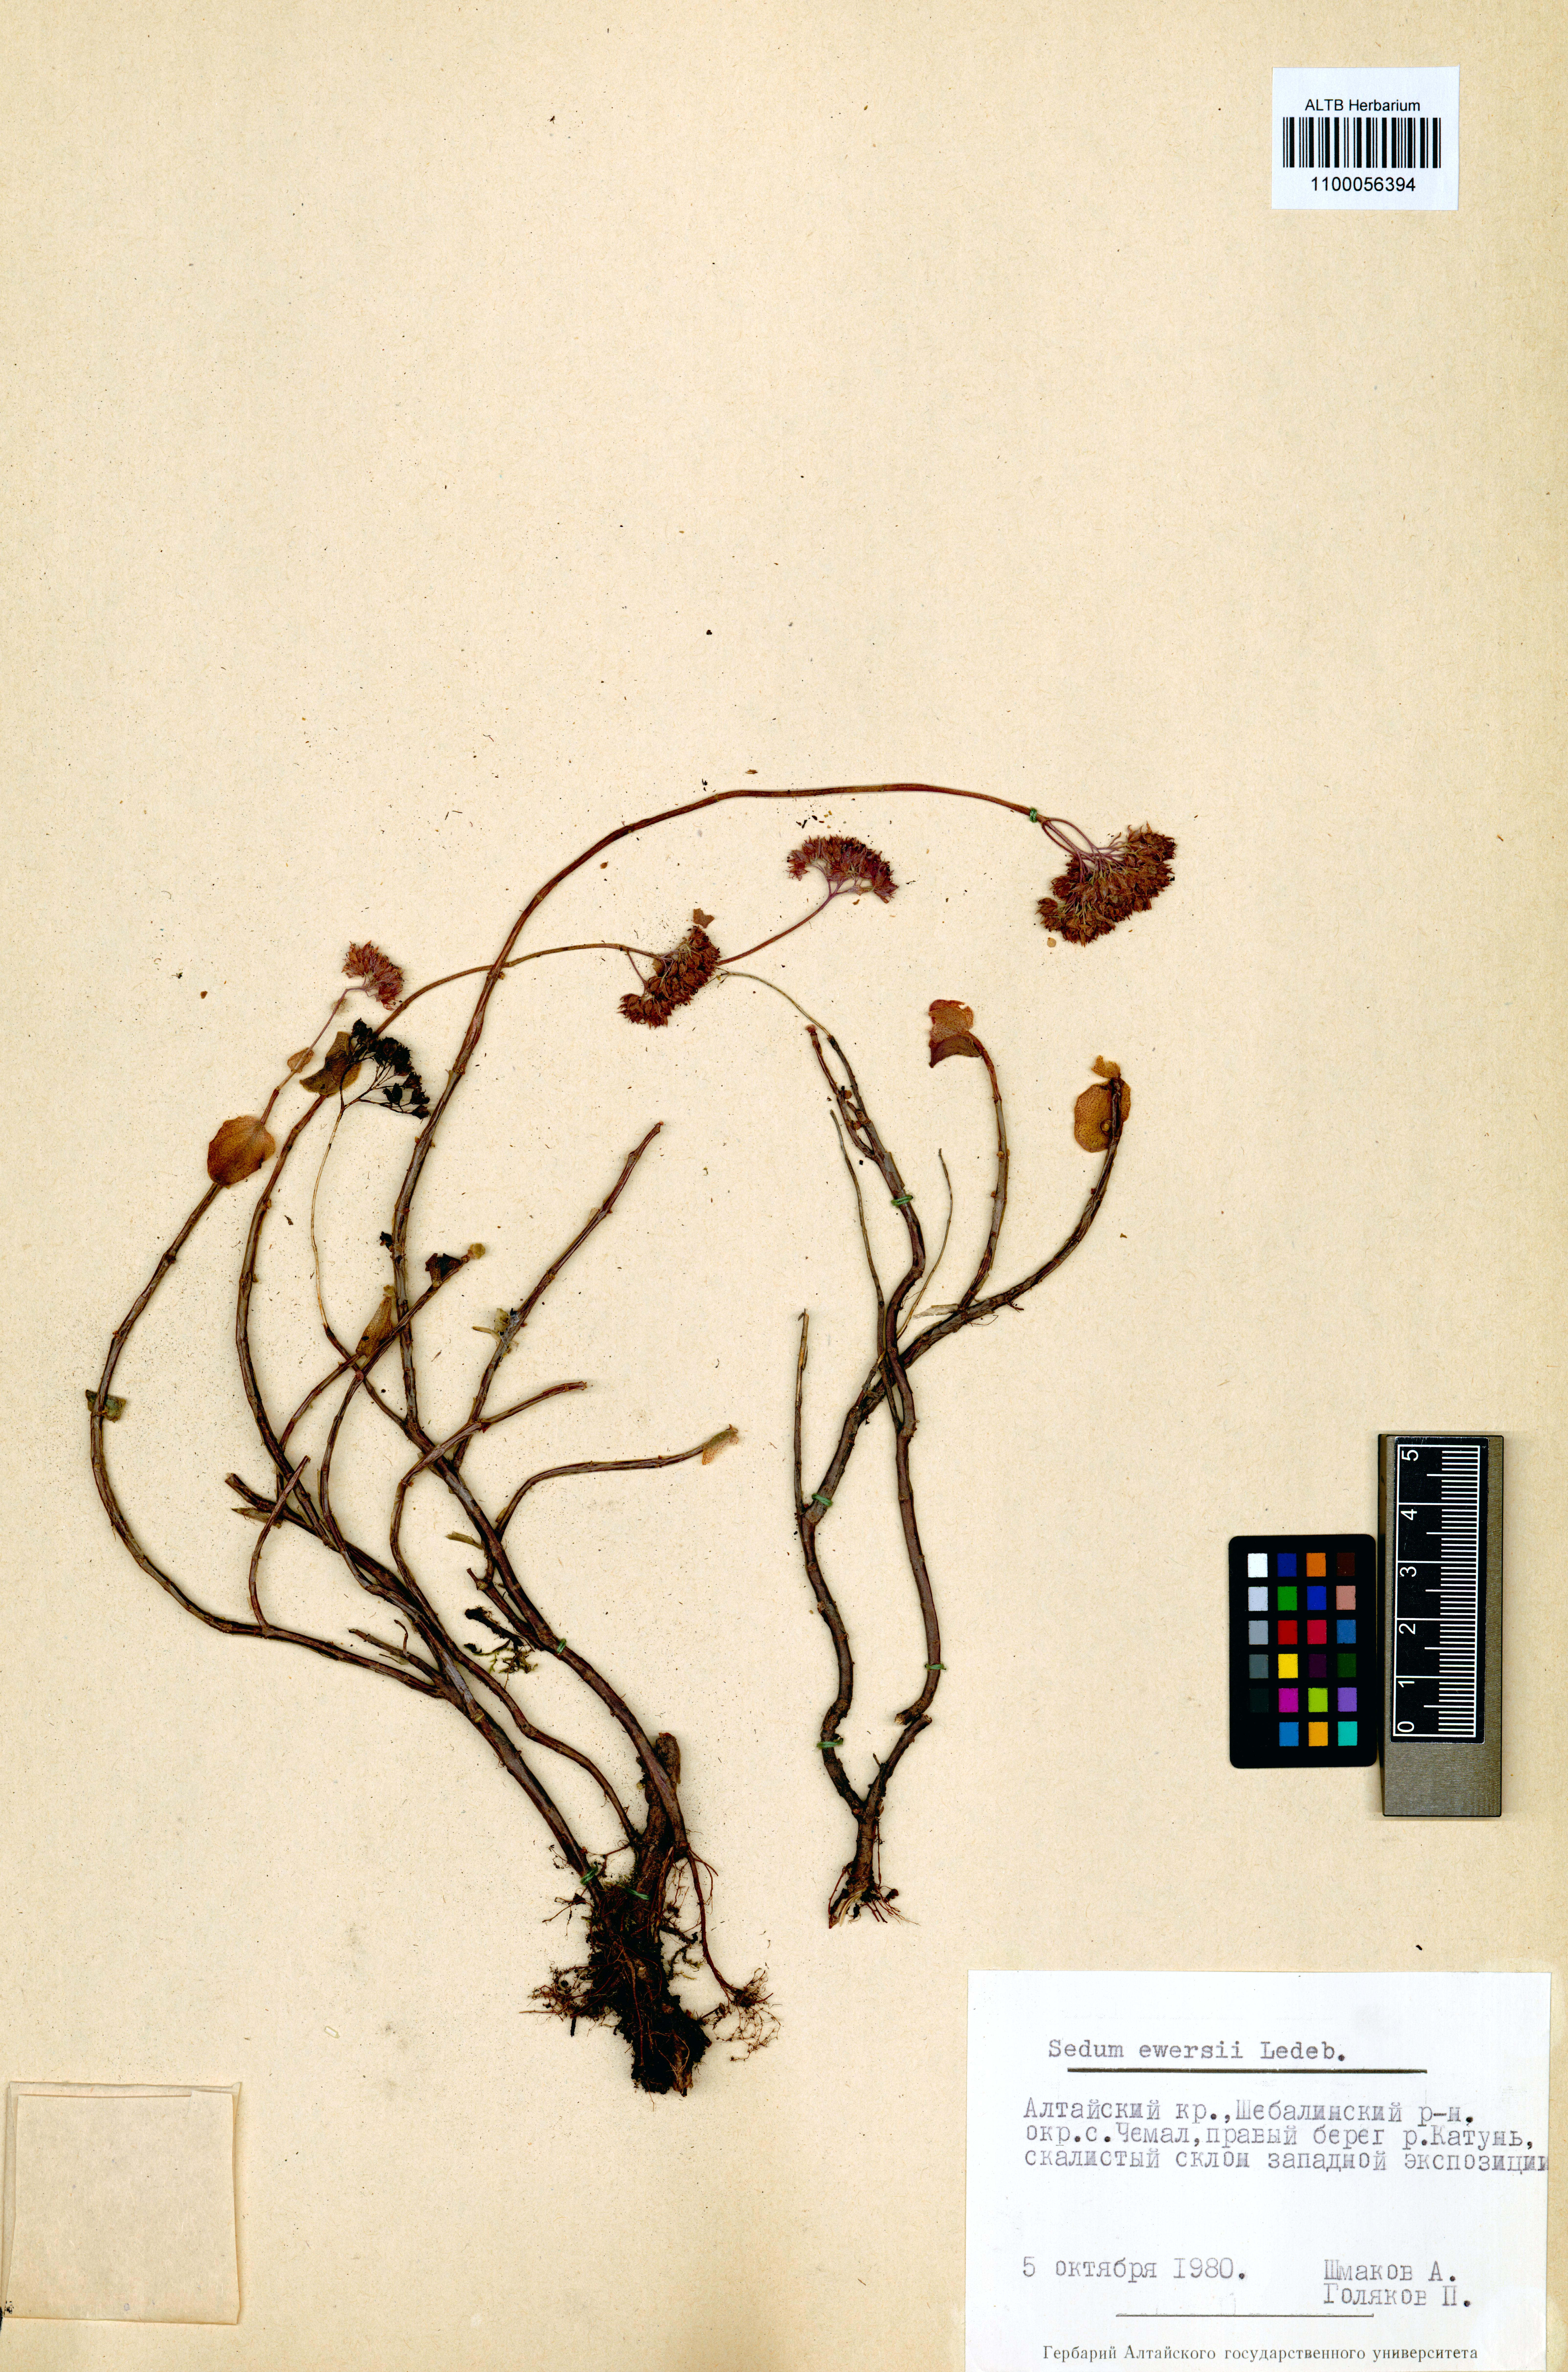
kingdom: Plantae
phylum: Tracheophyta
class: Magnoliopsida
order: Saxifragales
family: Crassulaceae
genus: Hylotelephium
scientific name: Hylotelephium ewersii
